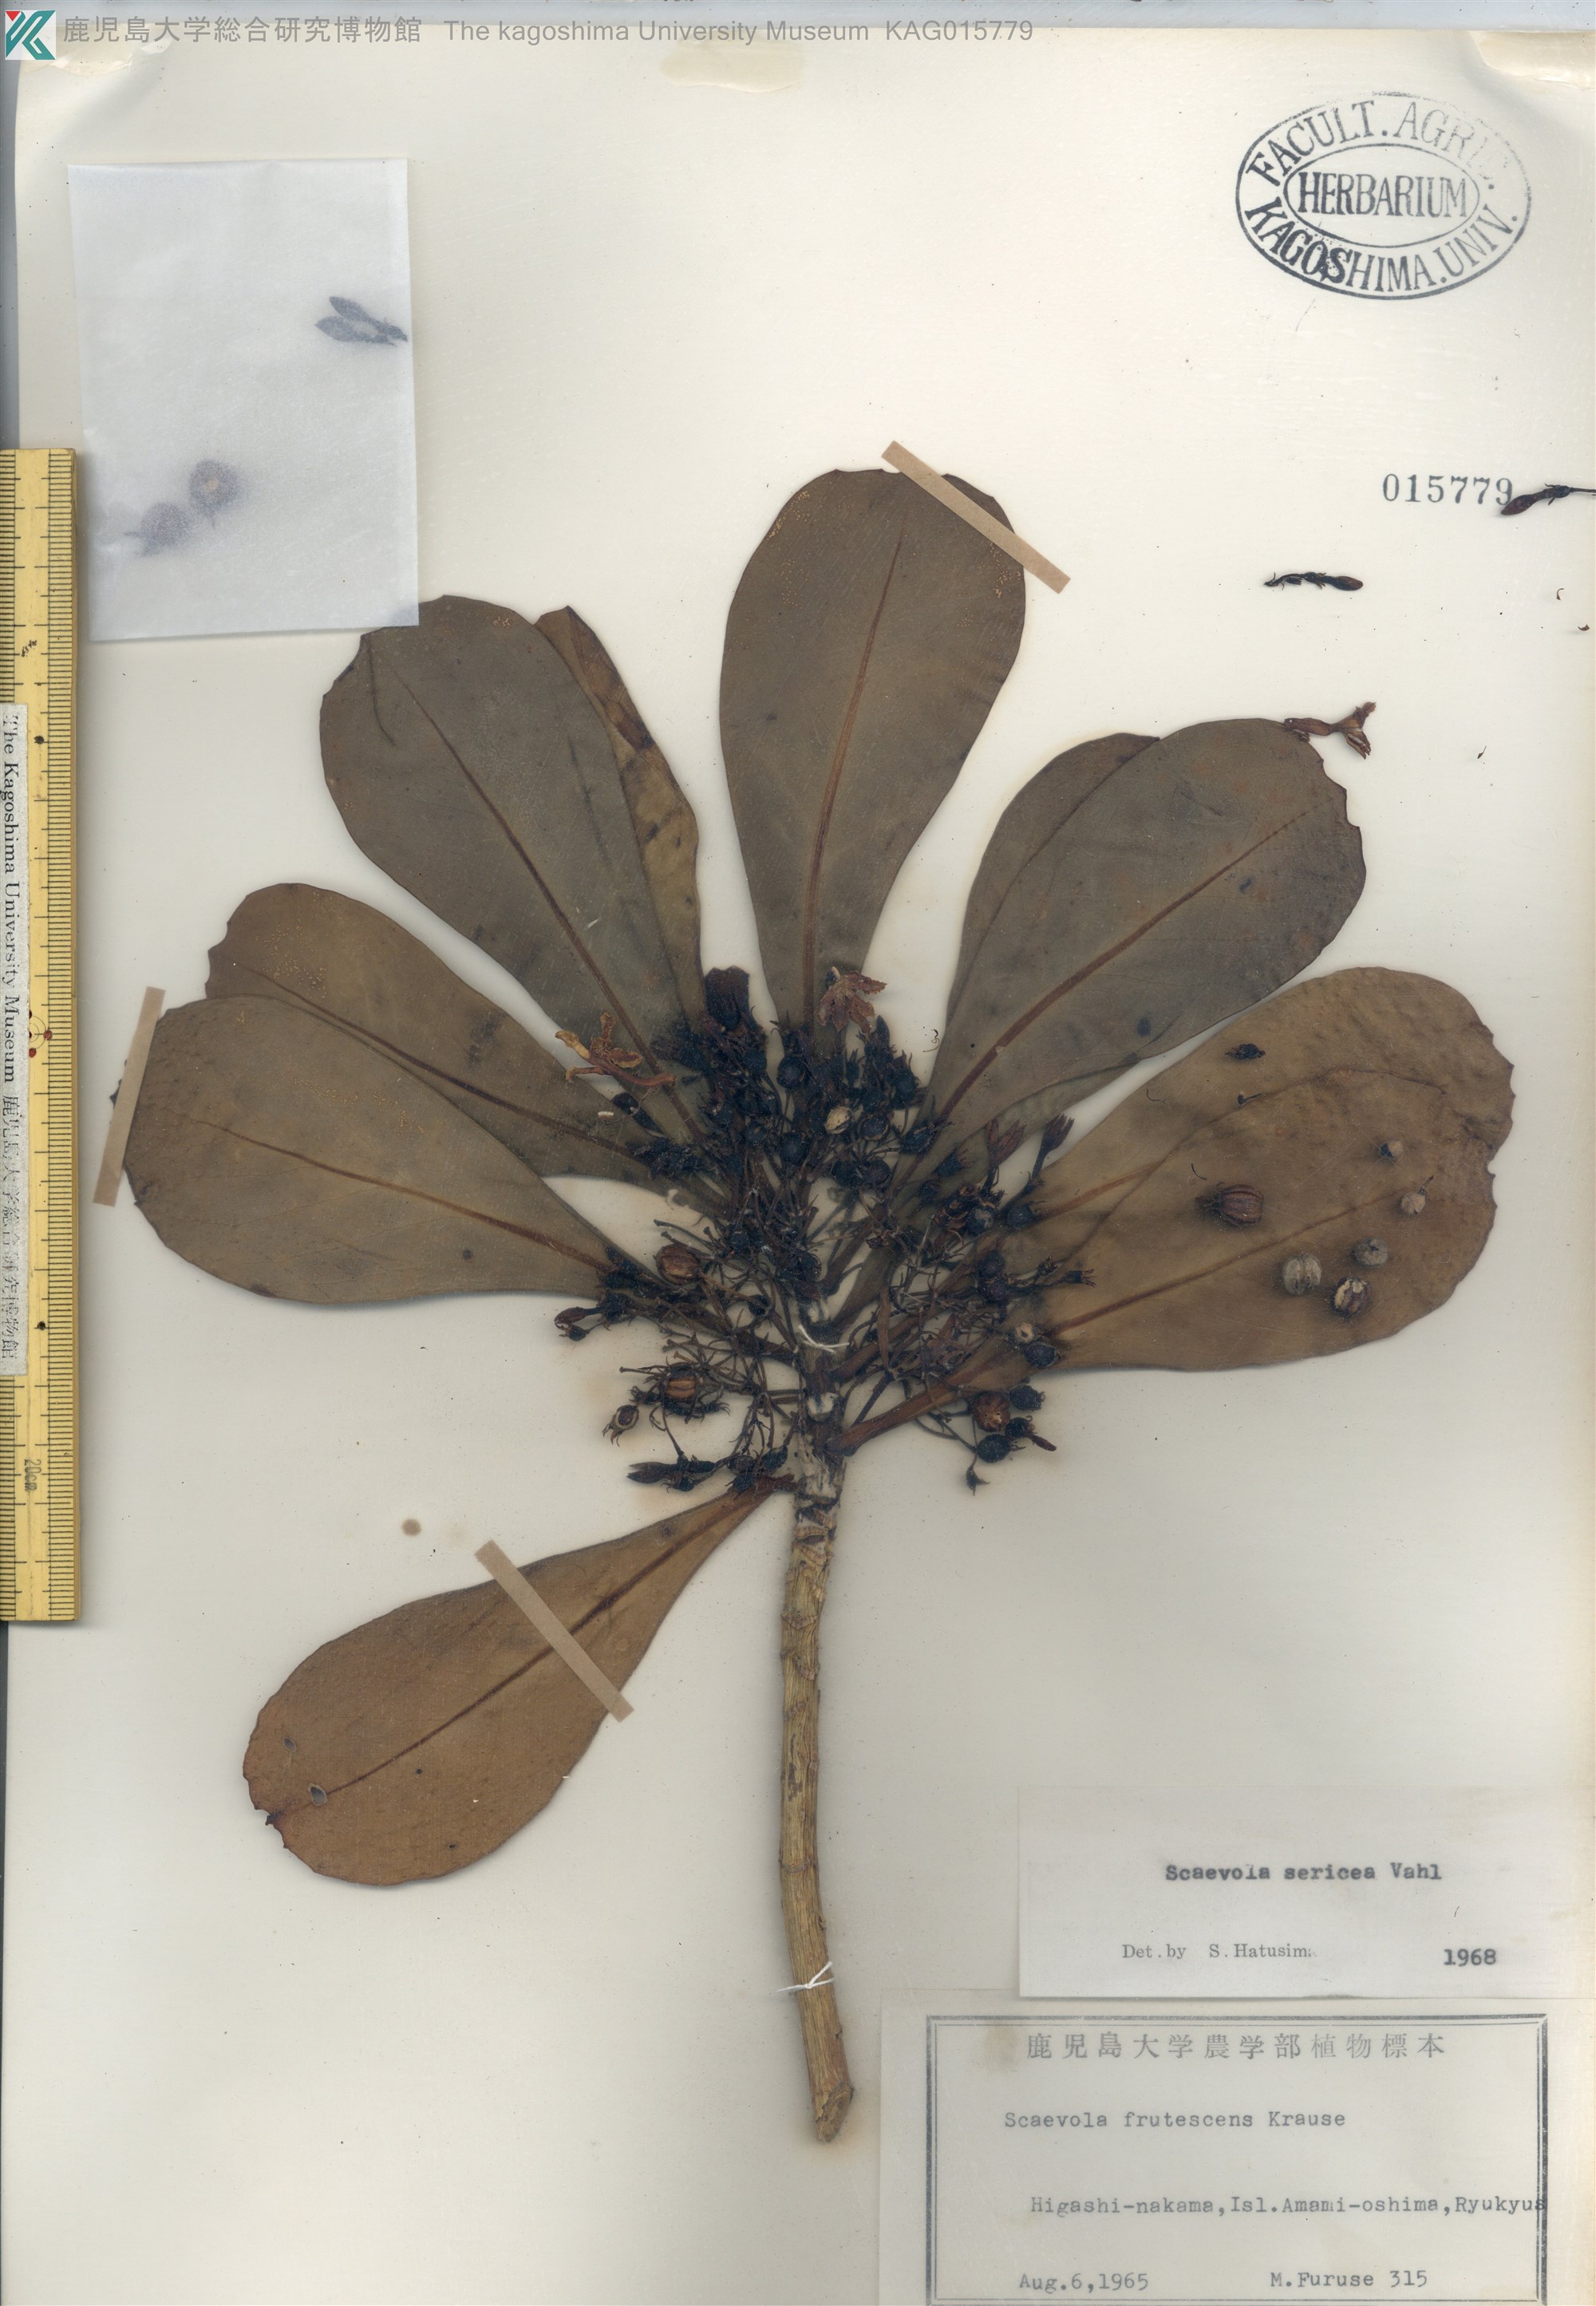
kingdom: Plantae
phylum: Tracheophyta
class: Magnoliopsida
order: Asterales
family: Goodeniaceae
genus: Scaevola
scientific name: Scaevola taccada
